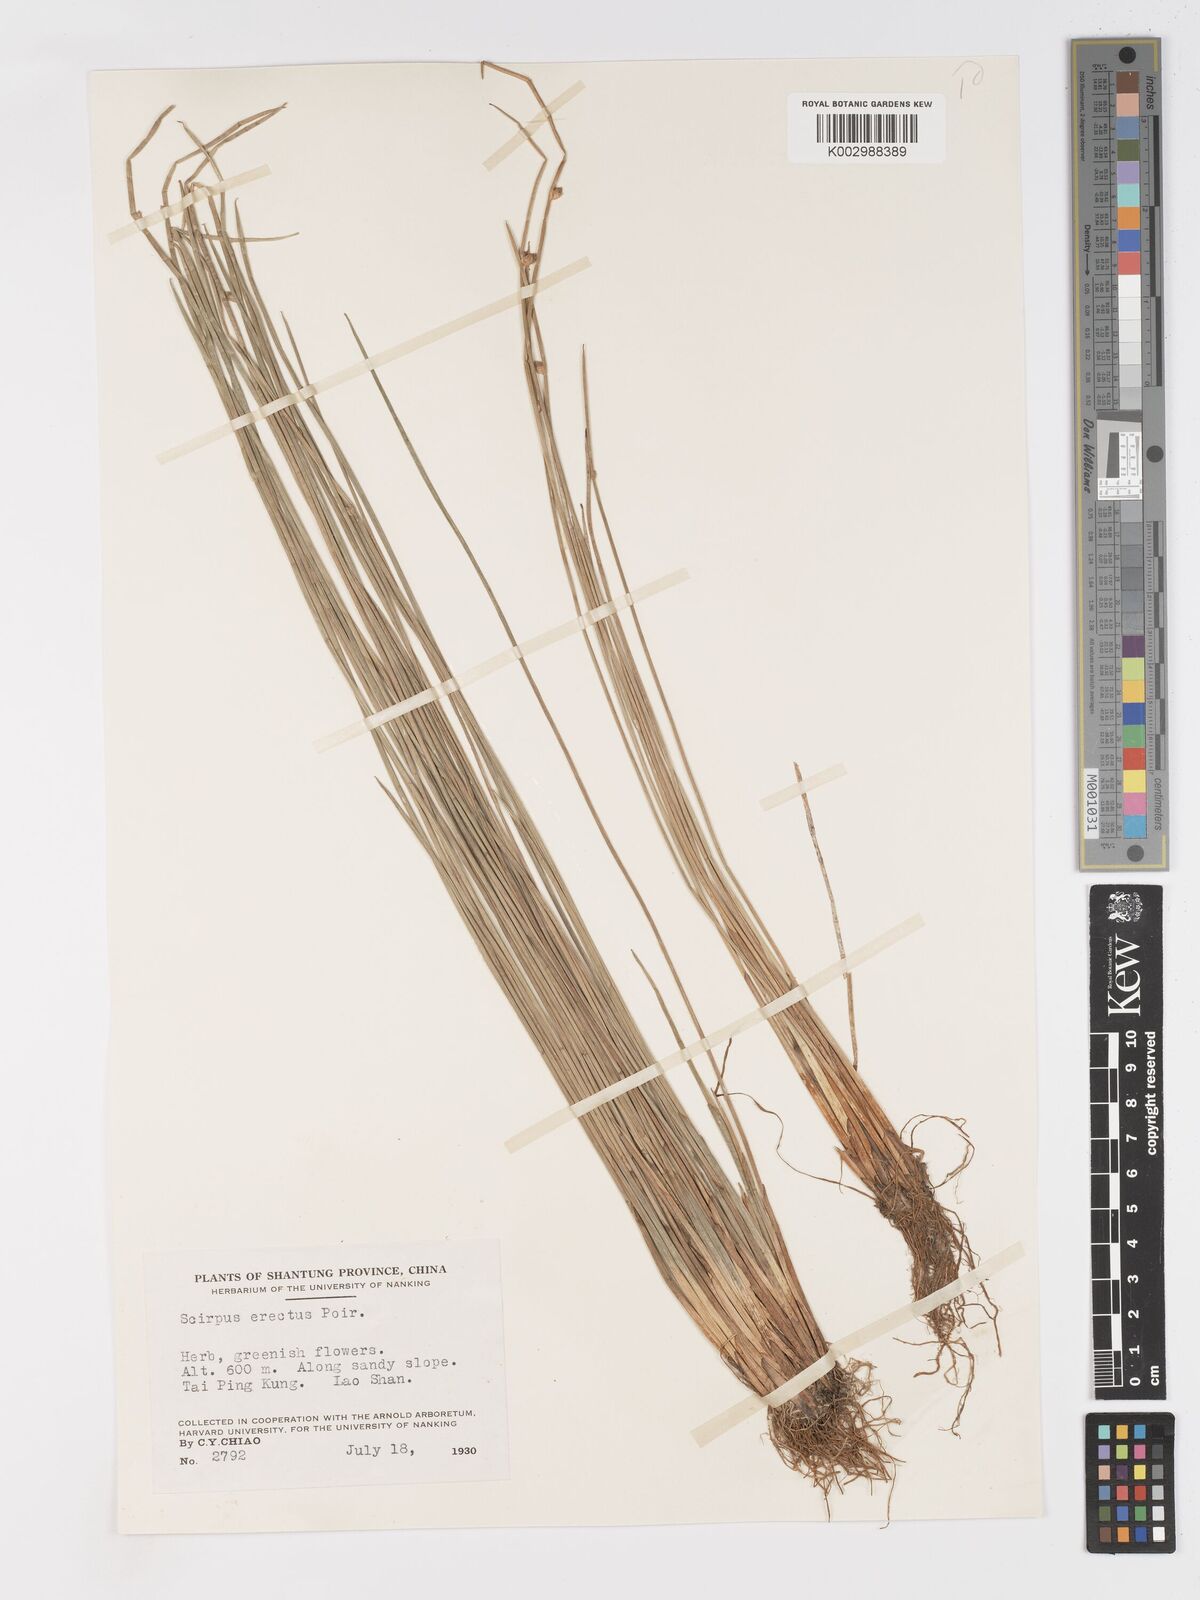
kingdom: Plantae
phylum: Tracheophyta
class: Liliopsida
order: Poales
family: Cyperaceae
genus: Schoenoplectiella
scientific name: Schoenoplectiella erecta
